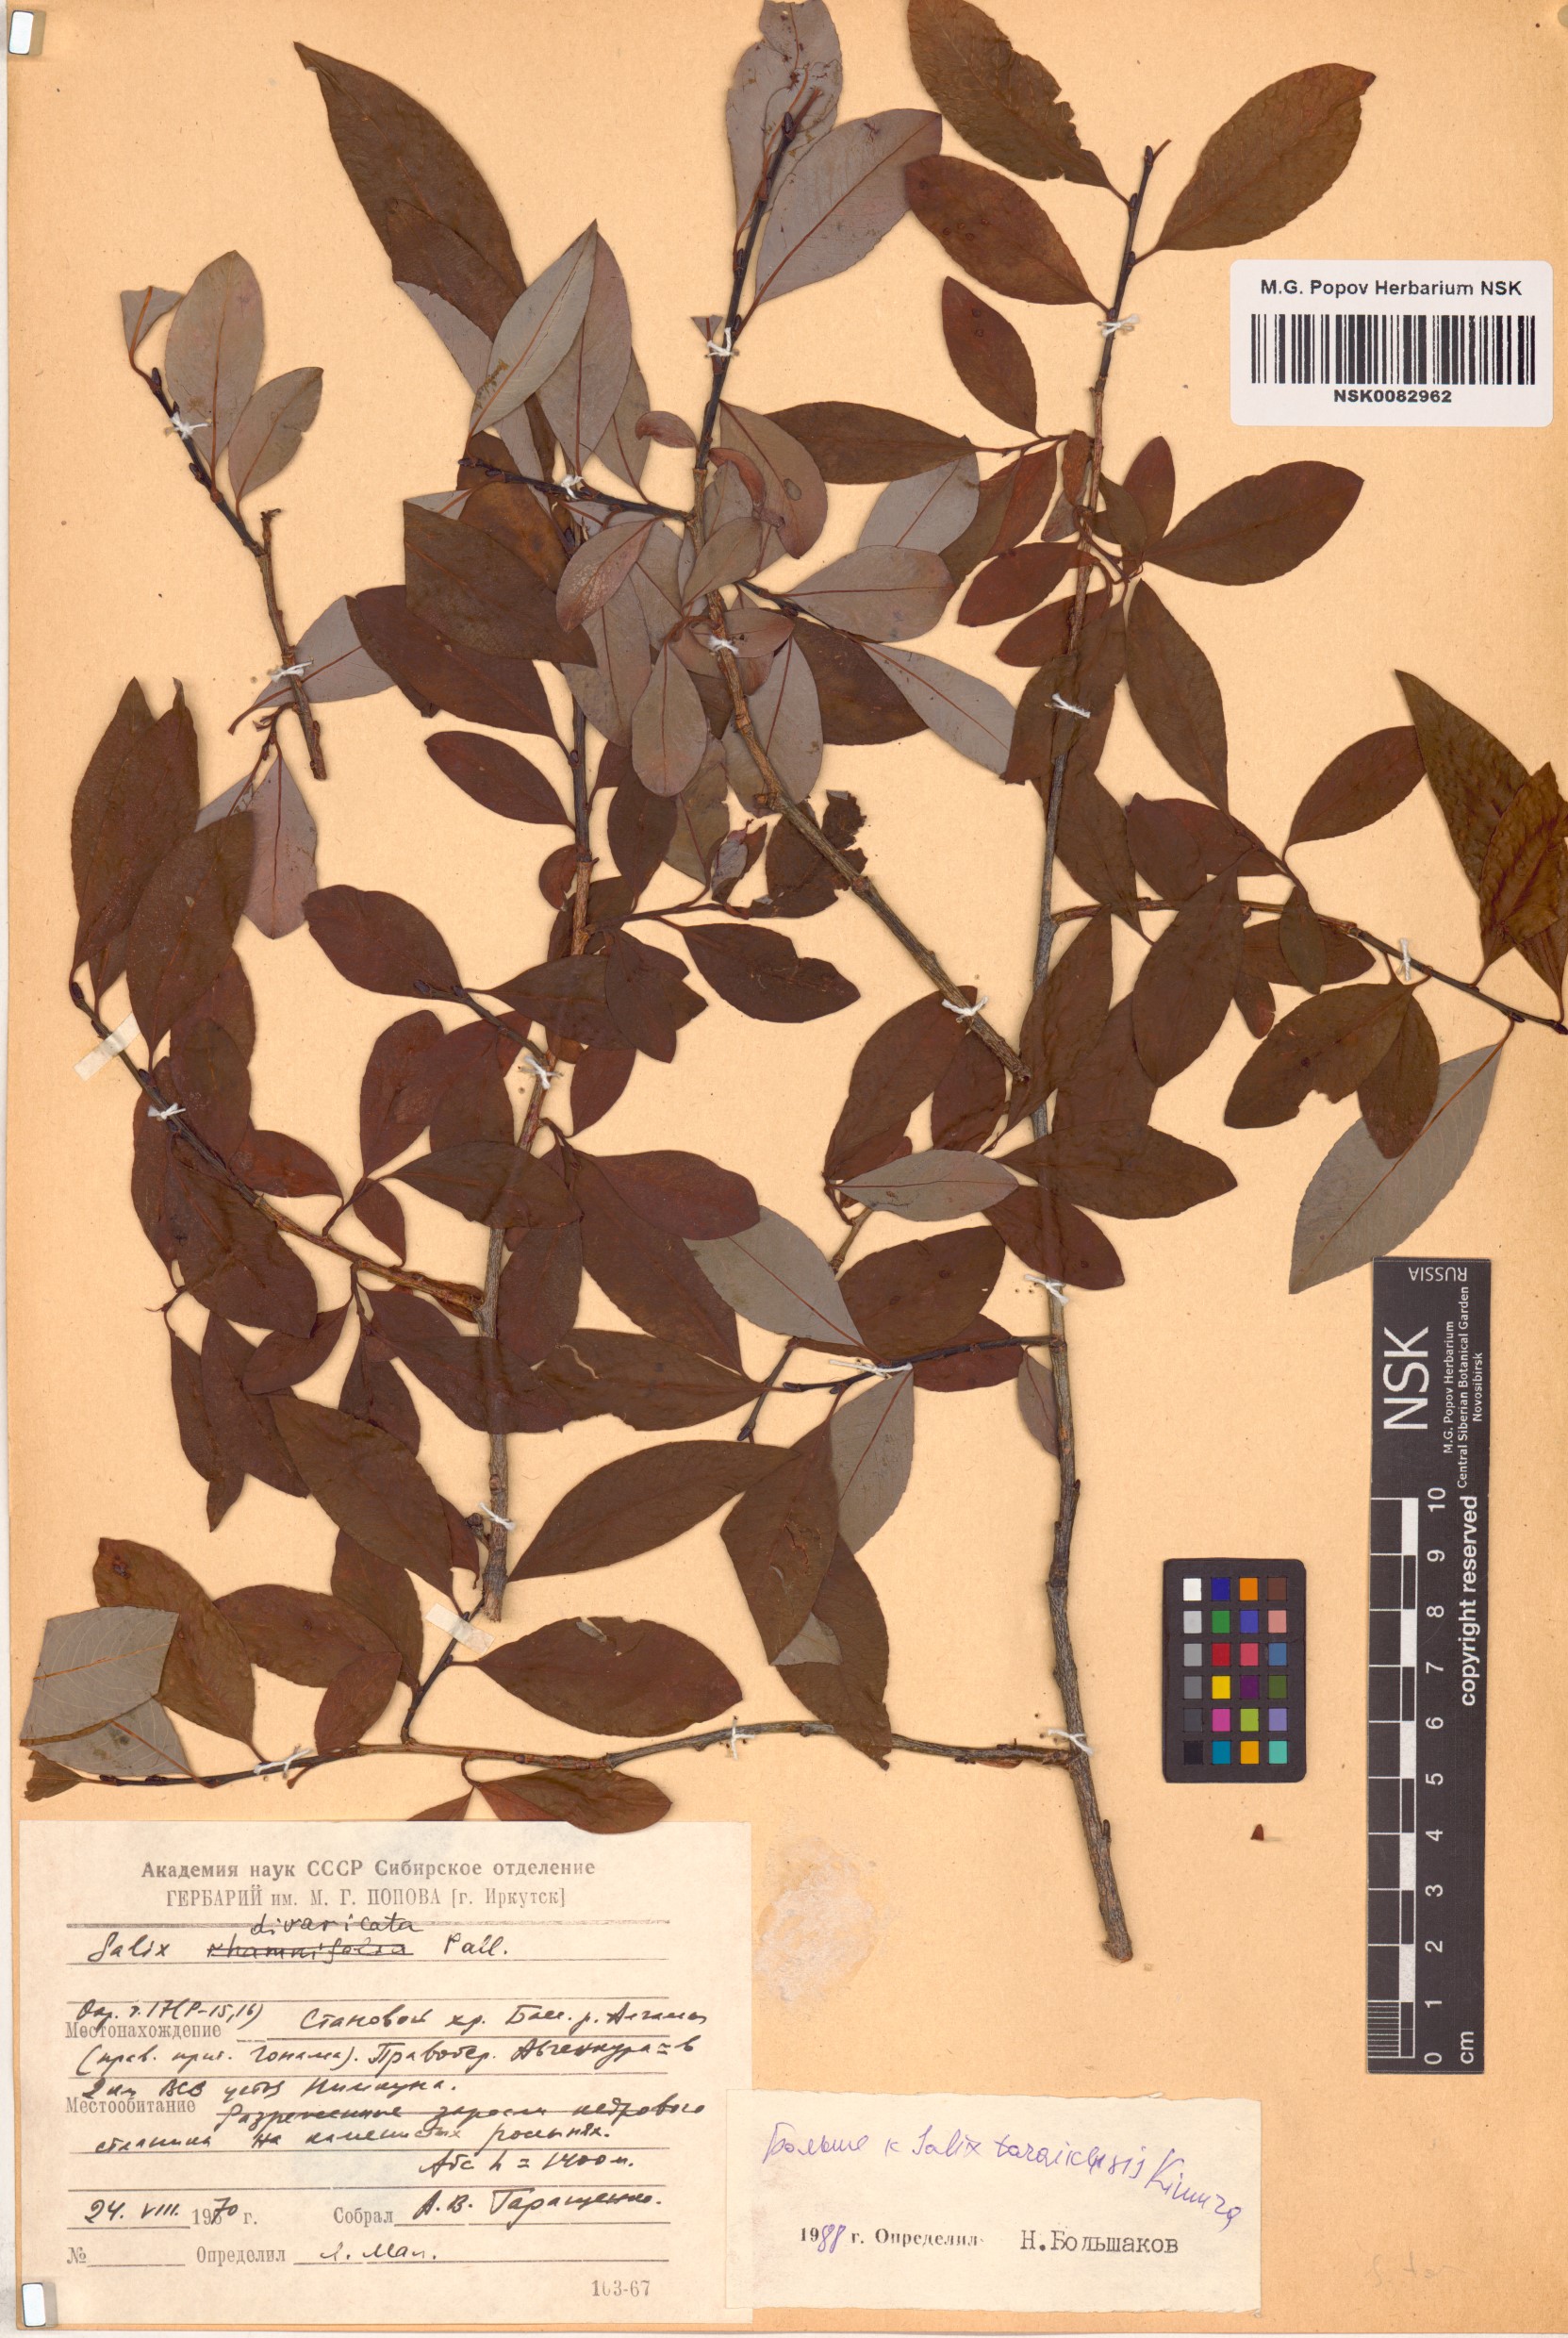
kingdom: Plantae
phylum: Tracheophyta
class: Magnoliopsida
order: Malpighiales
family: Salicaceae
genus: Salix
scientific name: Salix taraikensis
